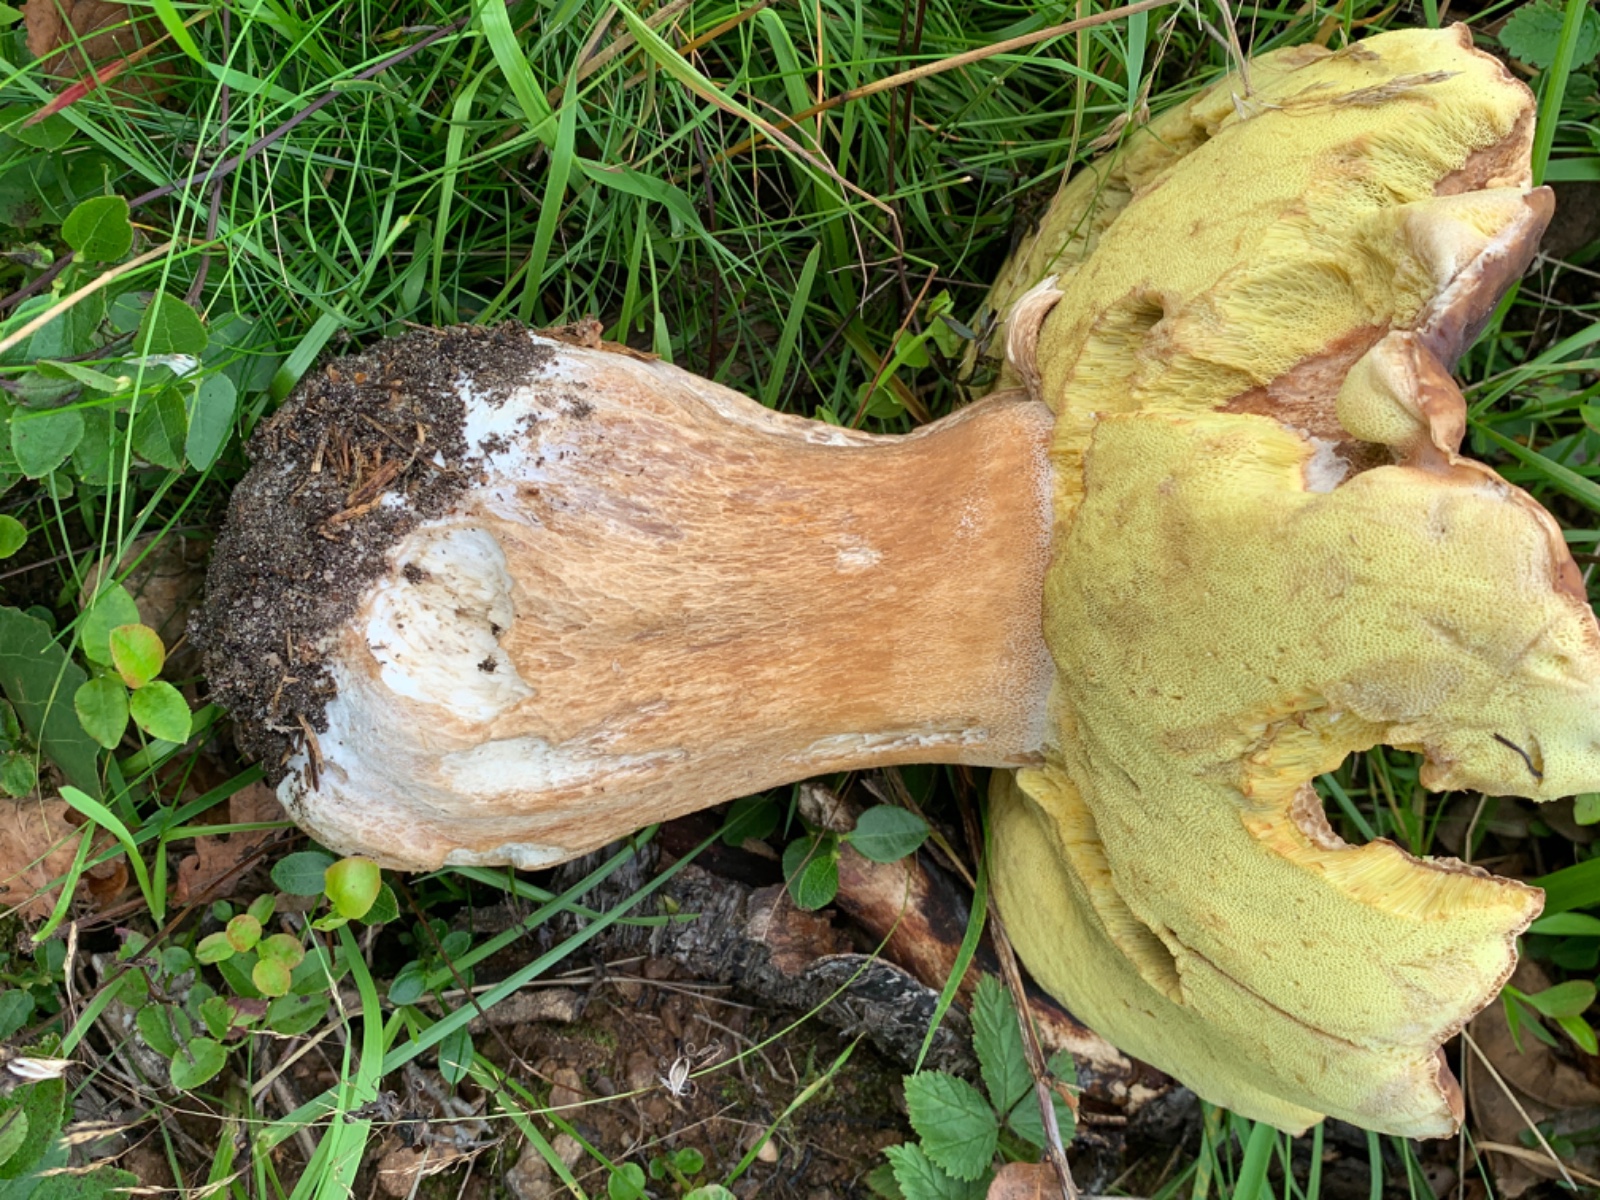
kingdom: Fungi
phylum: Basidiomycota
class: Agaricomycetes
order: Boletales
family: Boletaceae
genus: Boletus
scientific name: Boletus edulis
